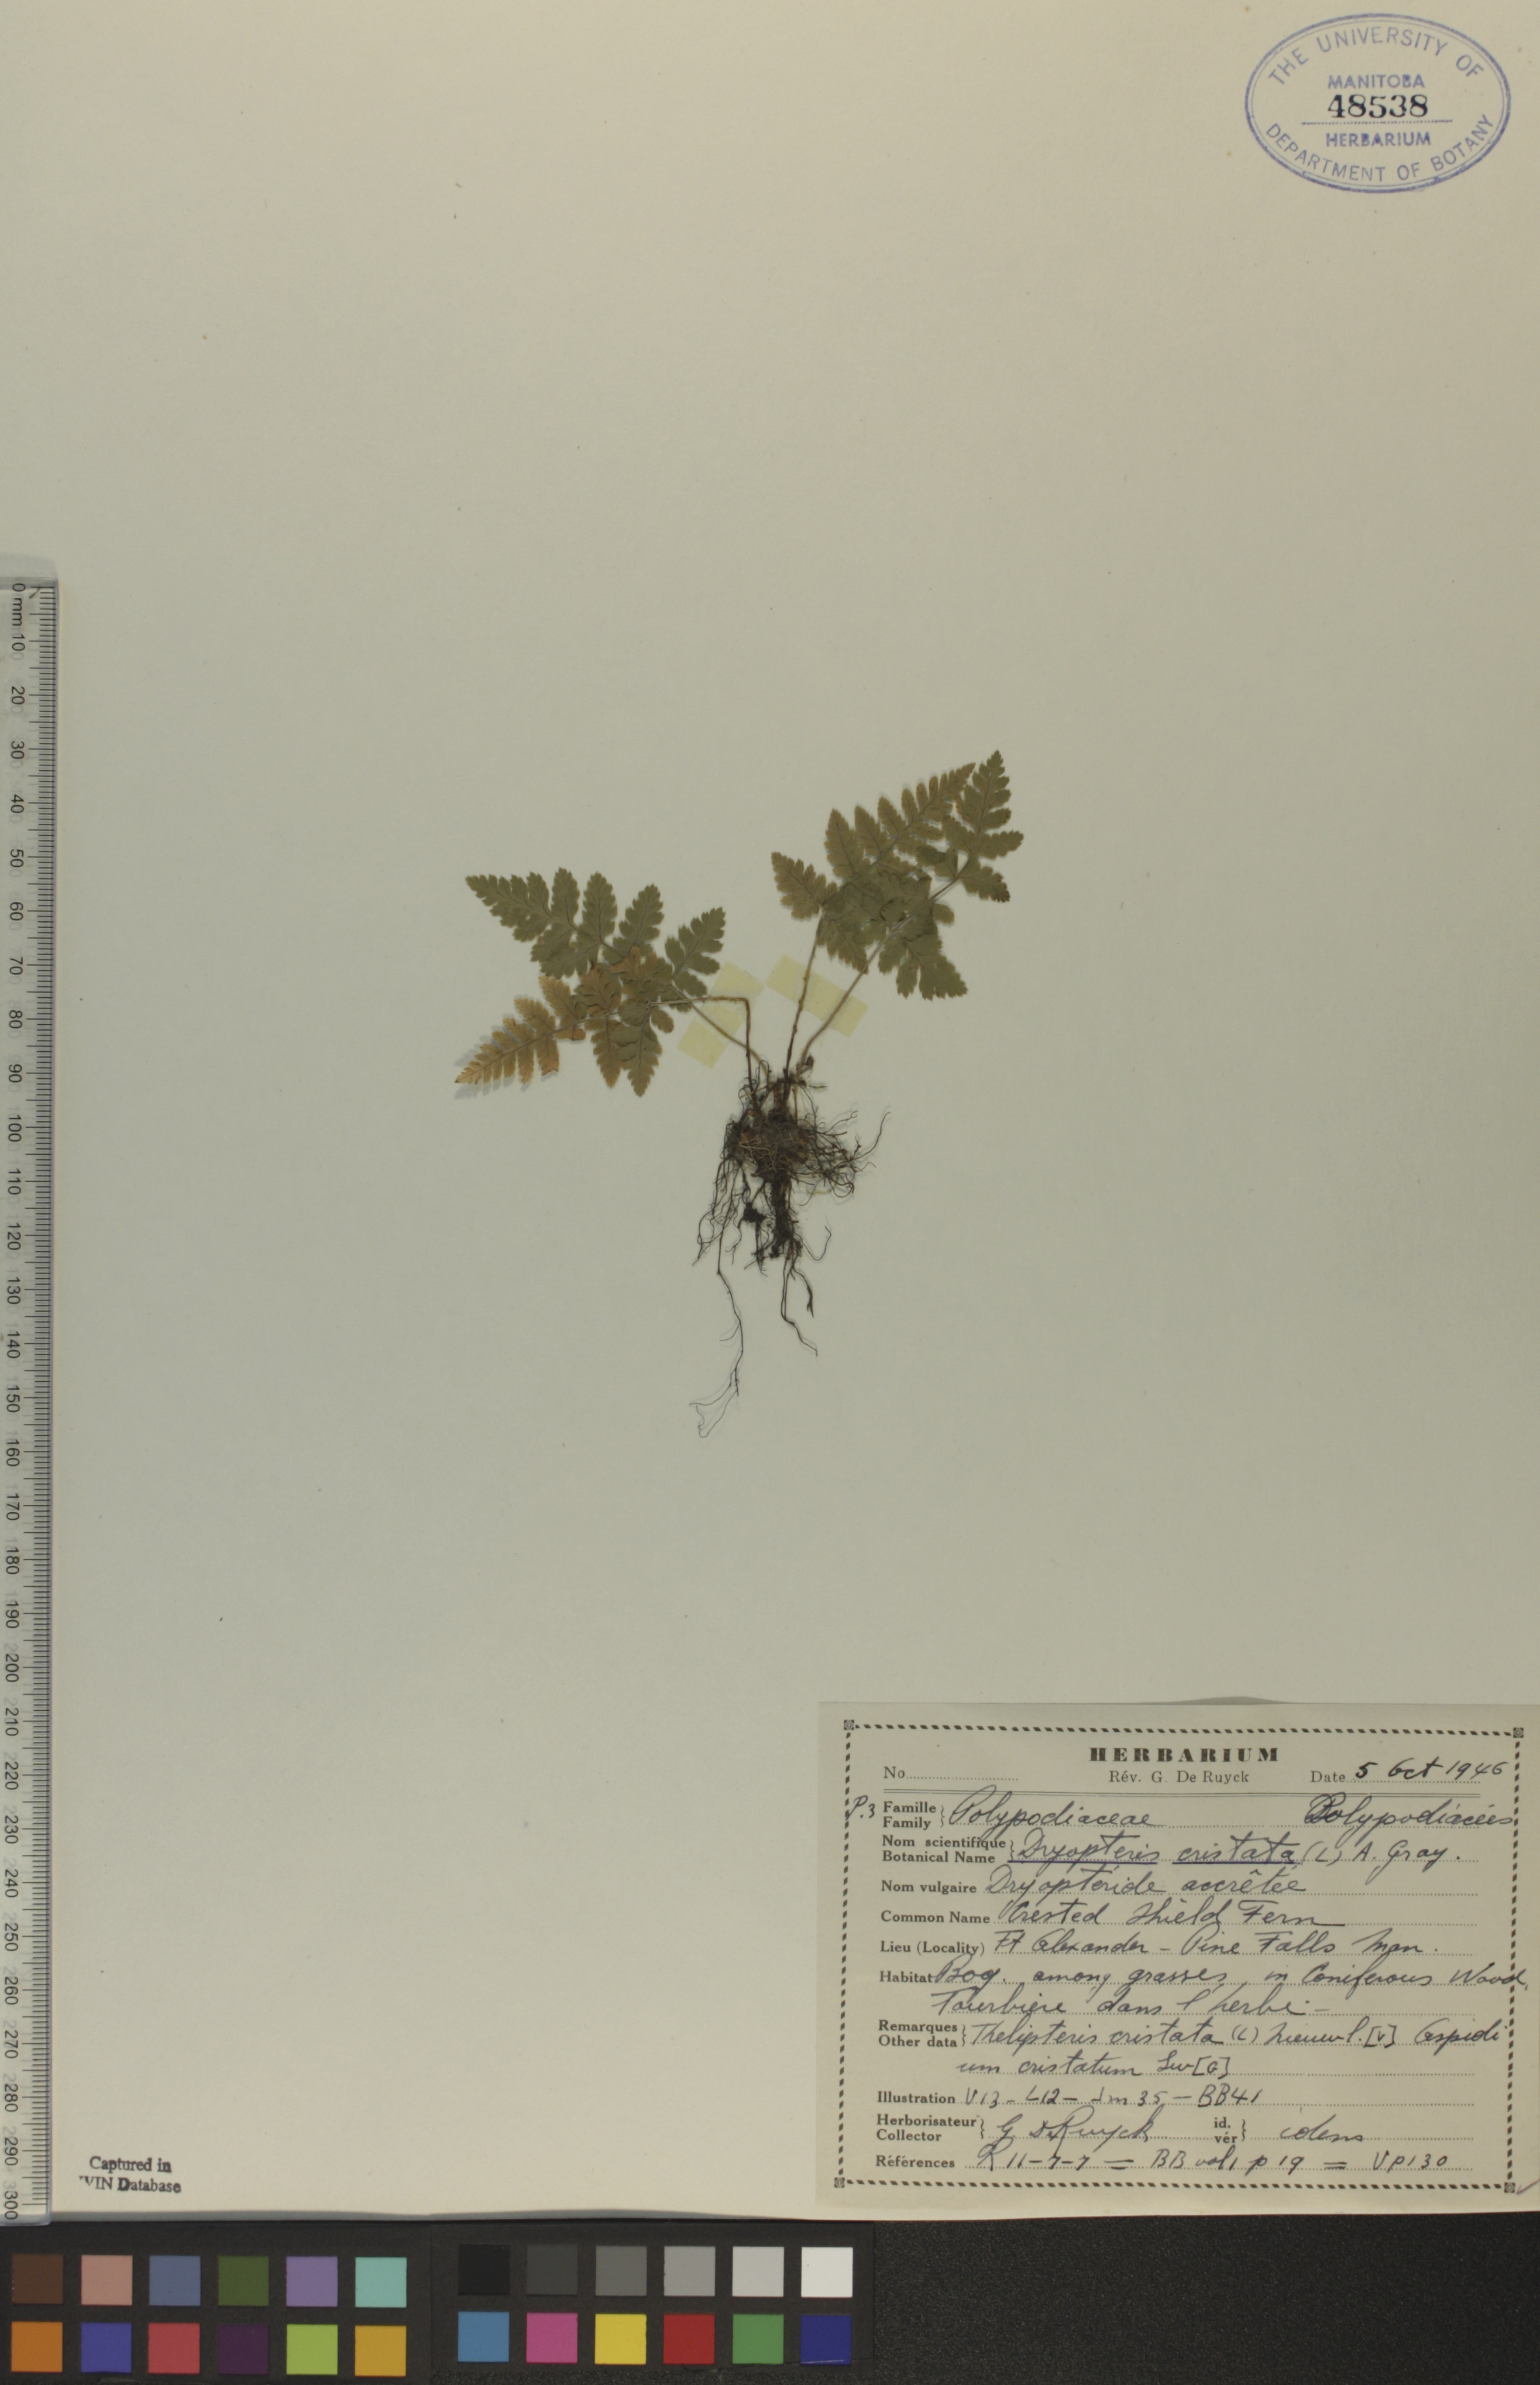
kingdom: Plantae
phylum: Tracheophyta
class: Polypodiopsida
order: Polypodiales
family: Dryopteridaceae
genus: Dryopteris
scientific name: Dryopteris cristata
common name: Crested wood fern
